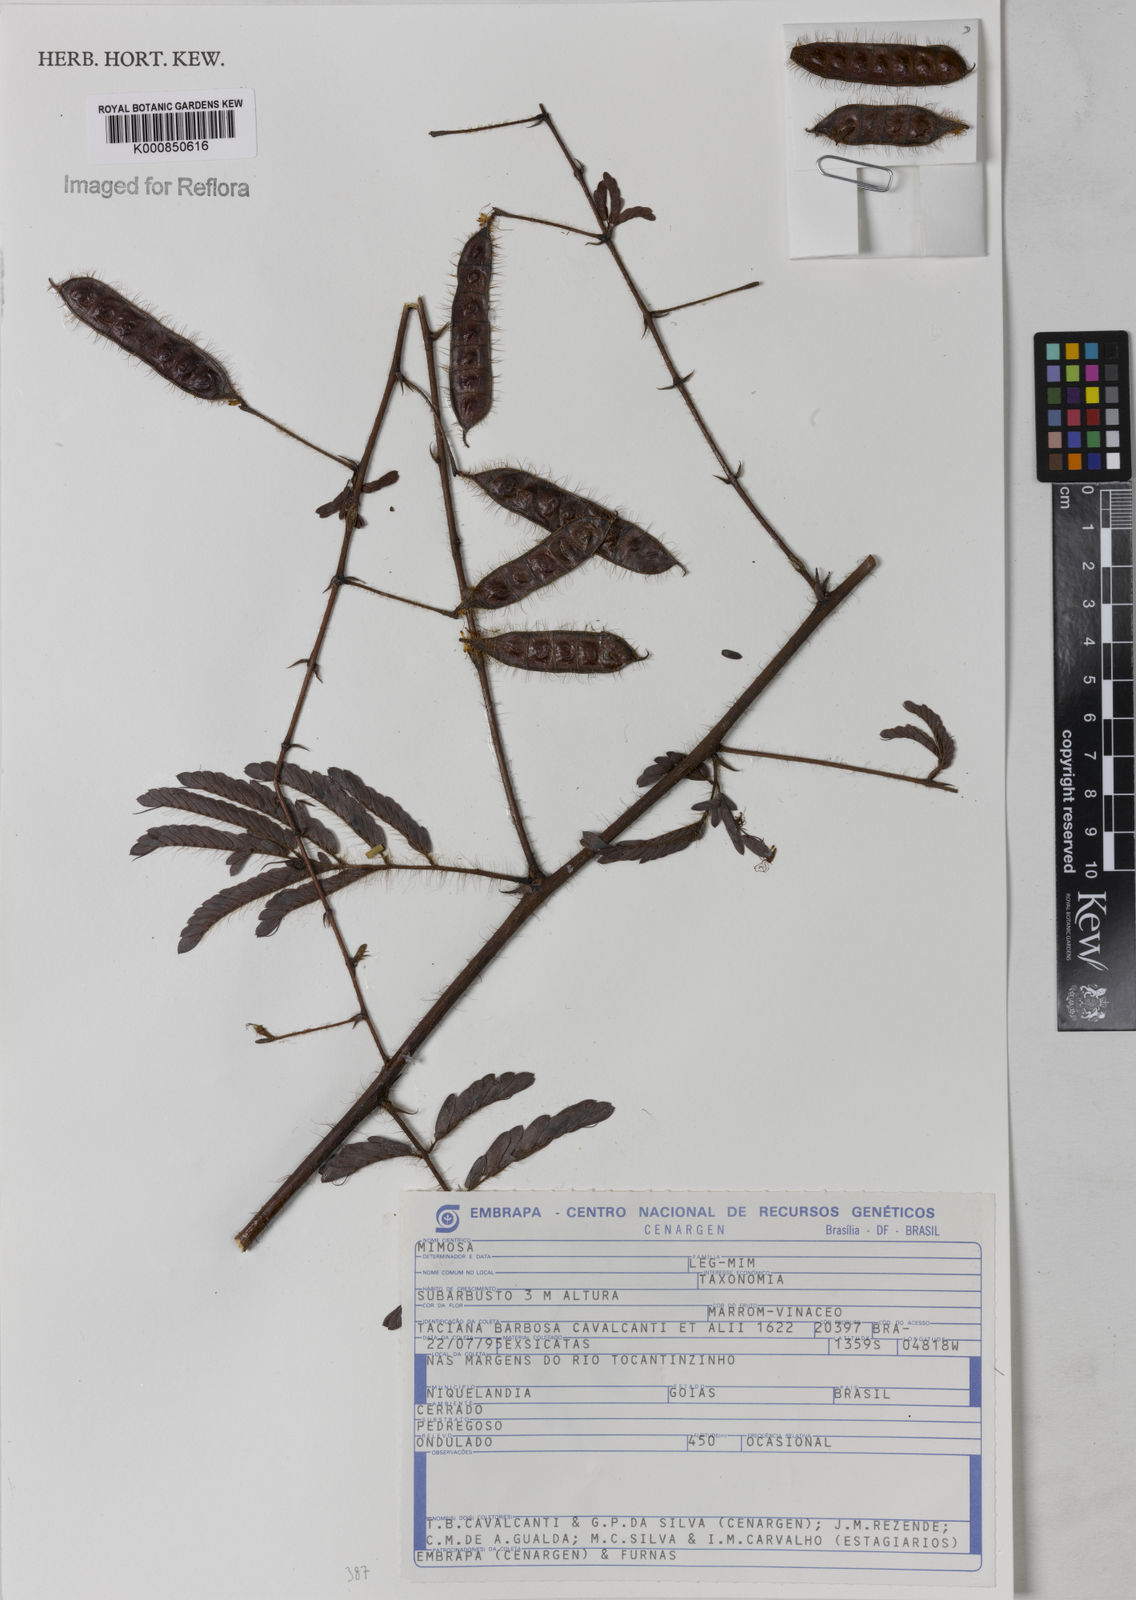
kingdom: Plantae
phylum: Tracheophyta
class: Magnoliopsida
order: Fabales
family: Fabaceae
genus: Mimosa
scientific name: Mimosa
